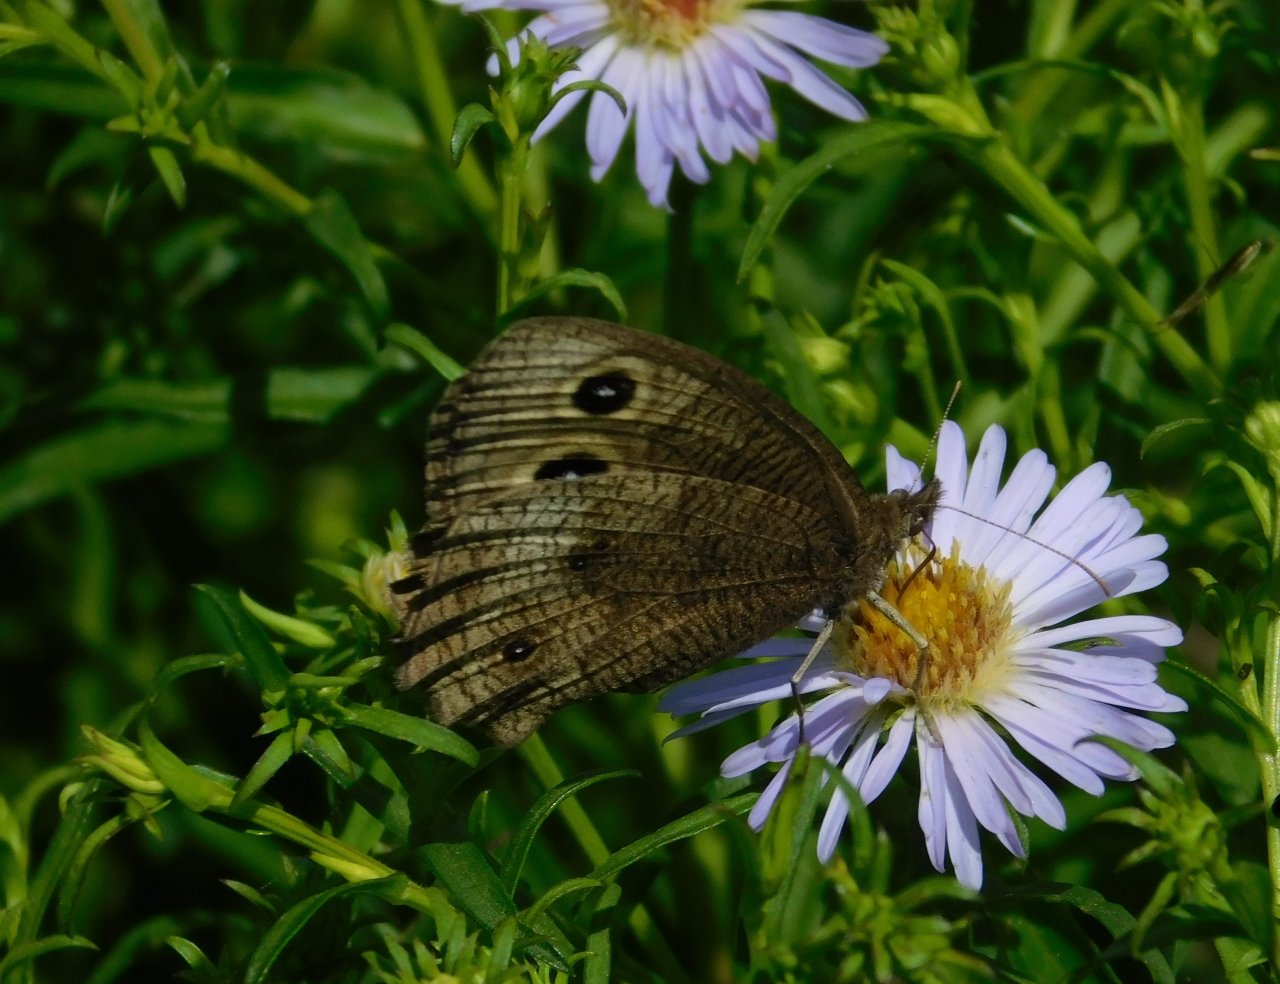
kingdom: Animalia
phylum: Arthropoda
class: Insecta
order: Lepidoptera
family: Nymphalidae
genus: Cercyonis
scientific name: Cercyonis pegala
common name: Common Wood-Nymph
